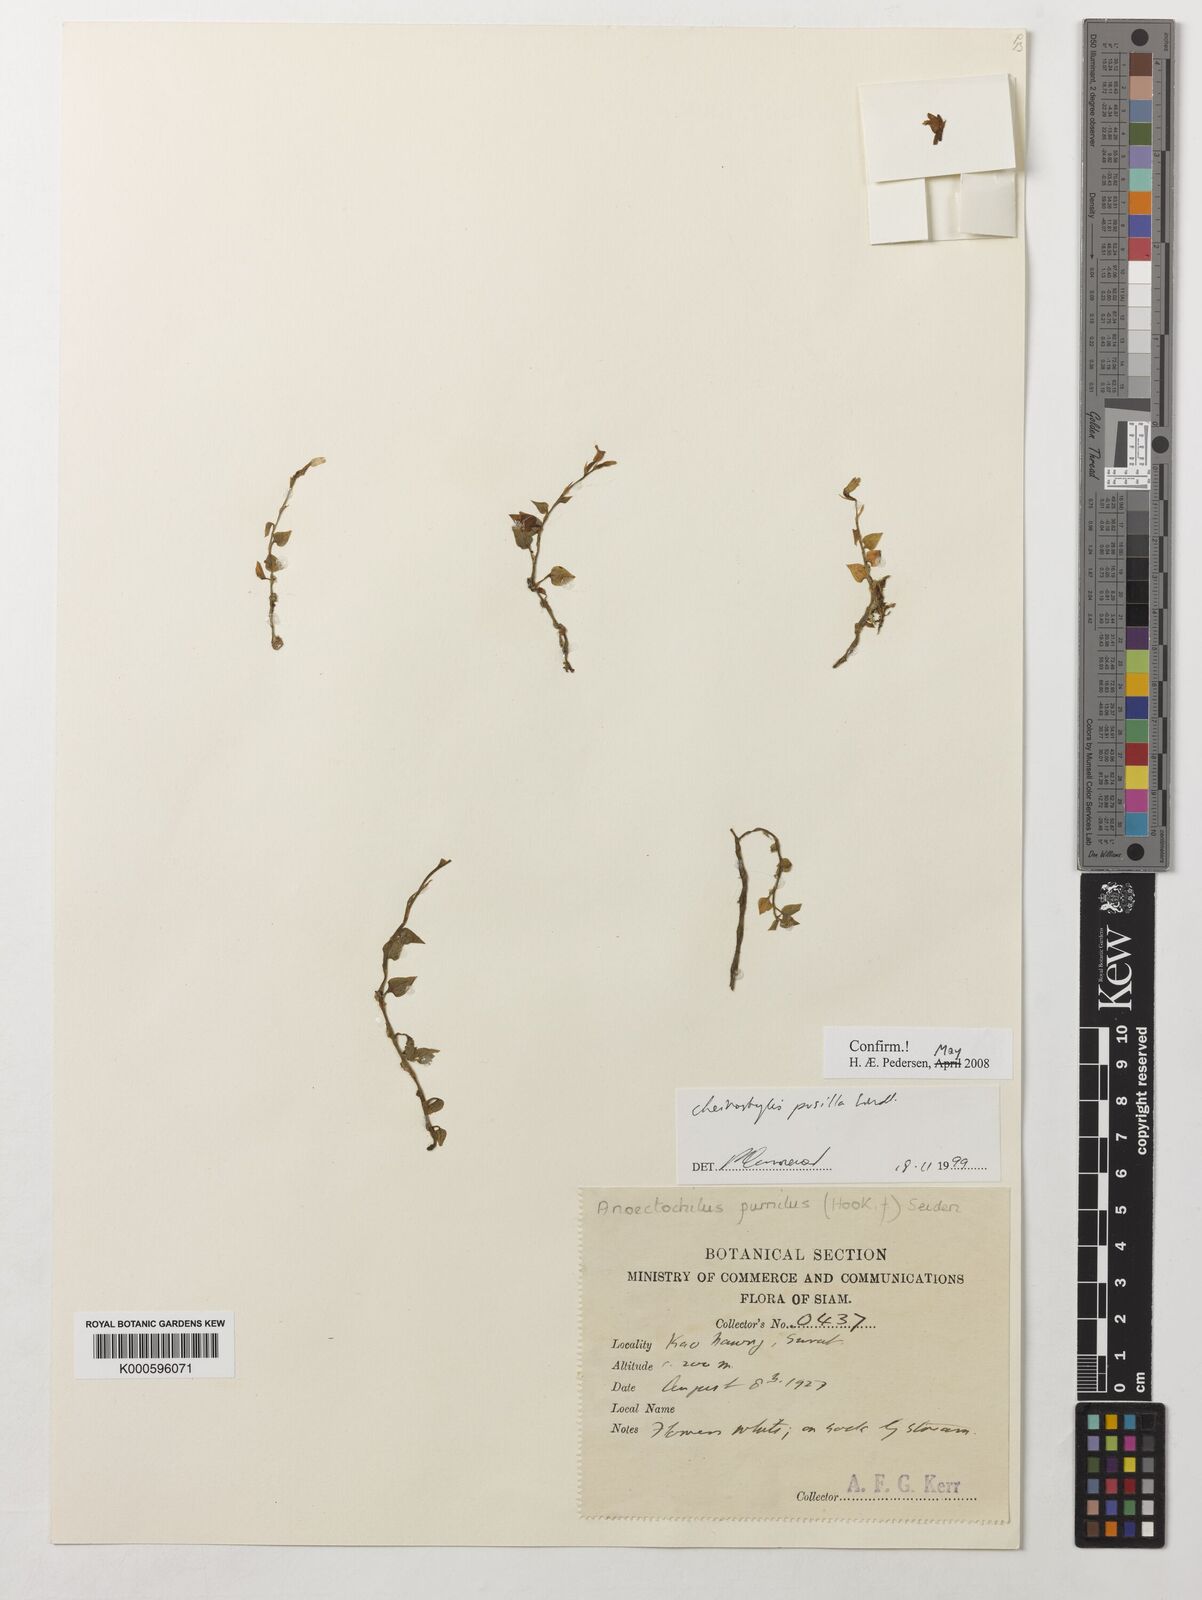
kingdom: Plantae
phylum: Tracheophyta
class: Liliopsida
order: Asparagales
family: Orchidaceae
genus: Cheirostylis
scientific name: Cheirostylis pusilla
